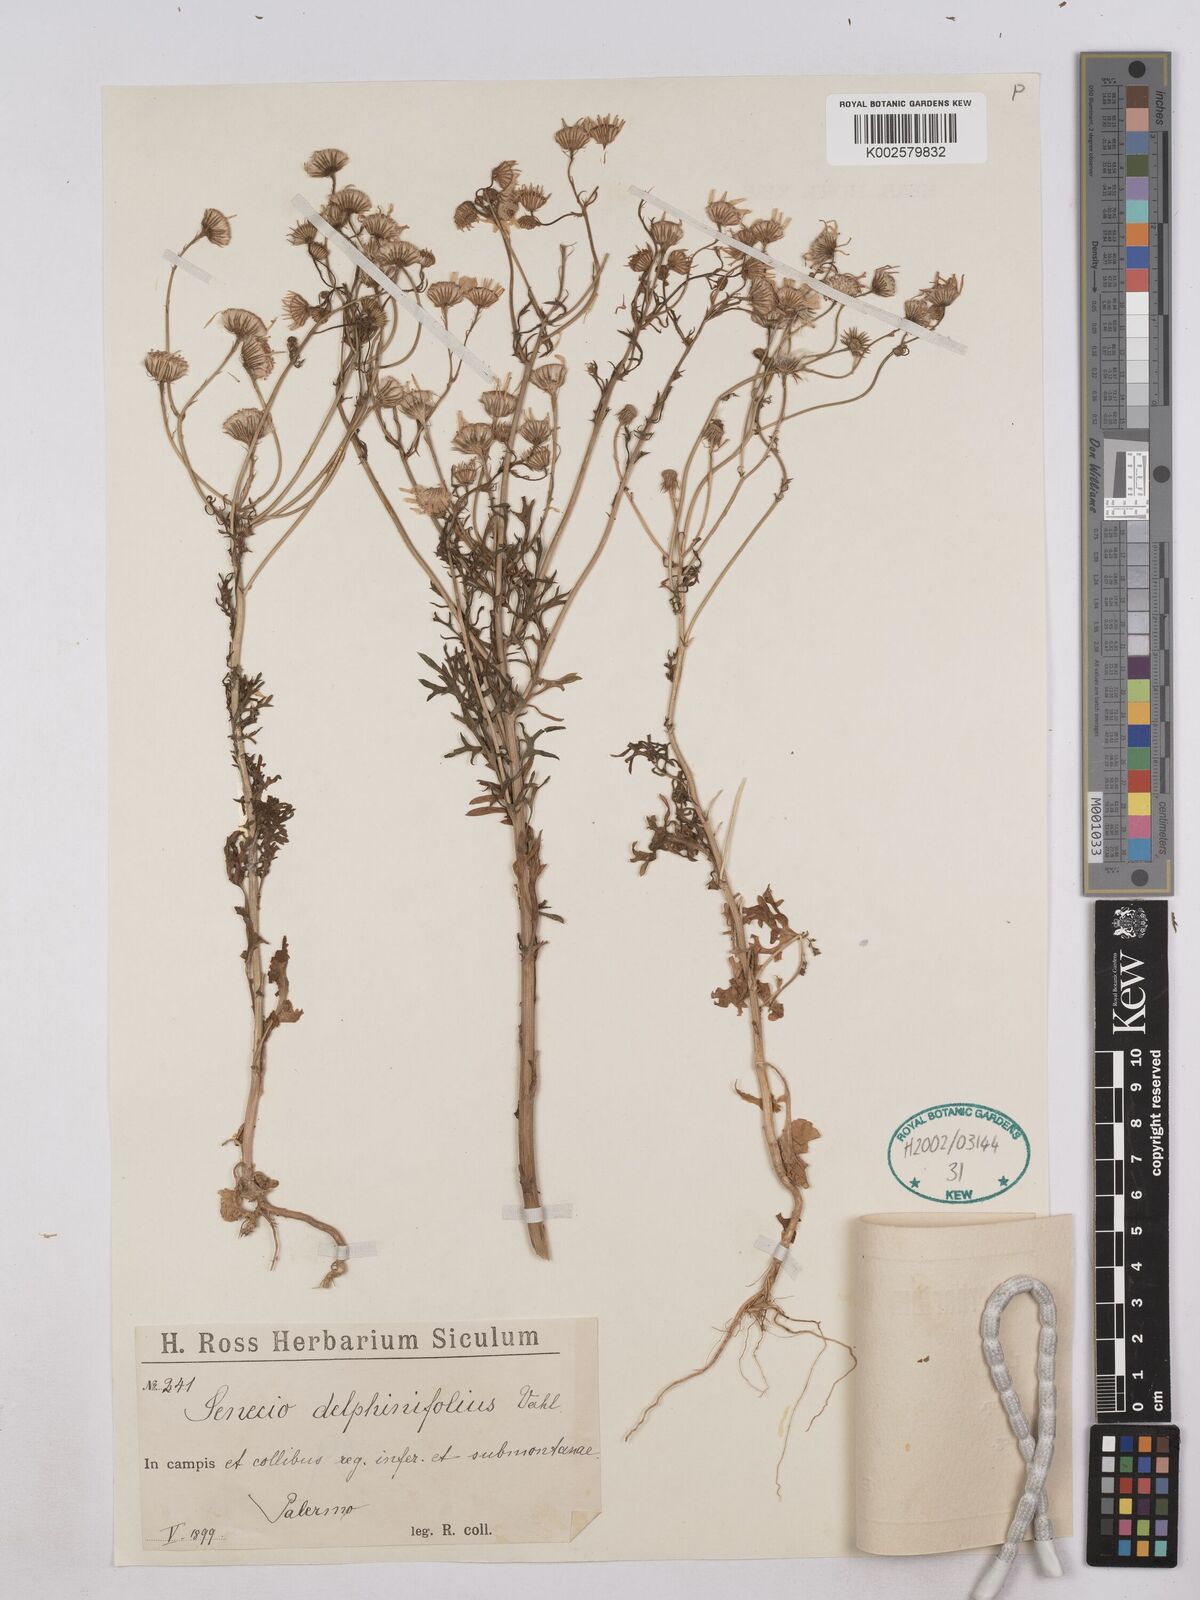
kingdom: Plantae
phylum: Tracheophyta
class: Magnoliopsida
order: Asterales
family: Asteraceae
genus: Jacobaea
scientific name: Jacobaea erucifolia
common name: Hoary ragwort
